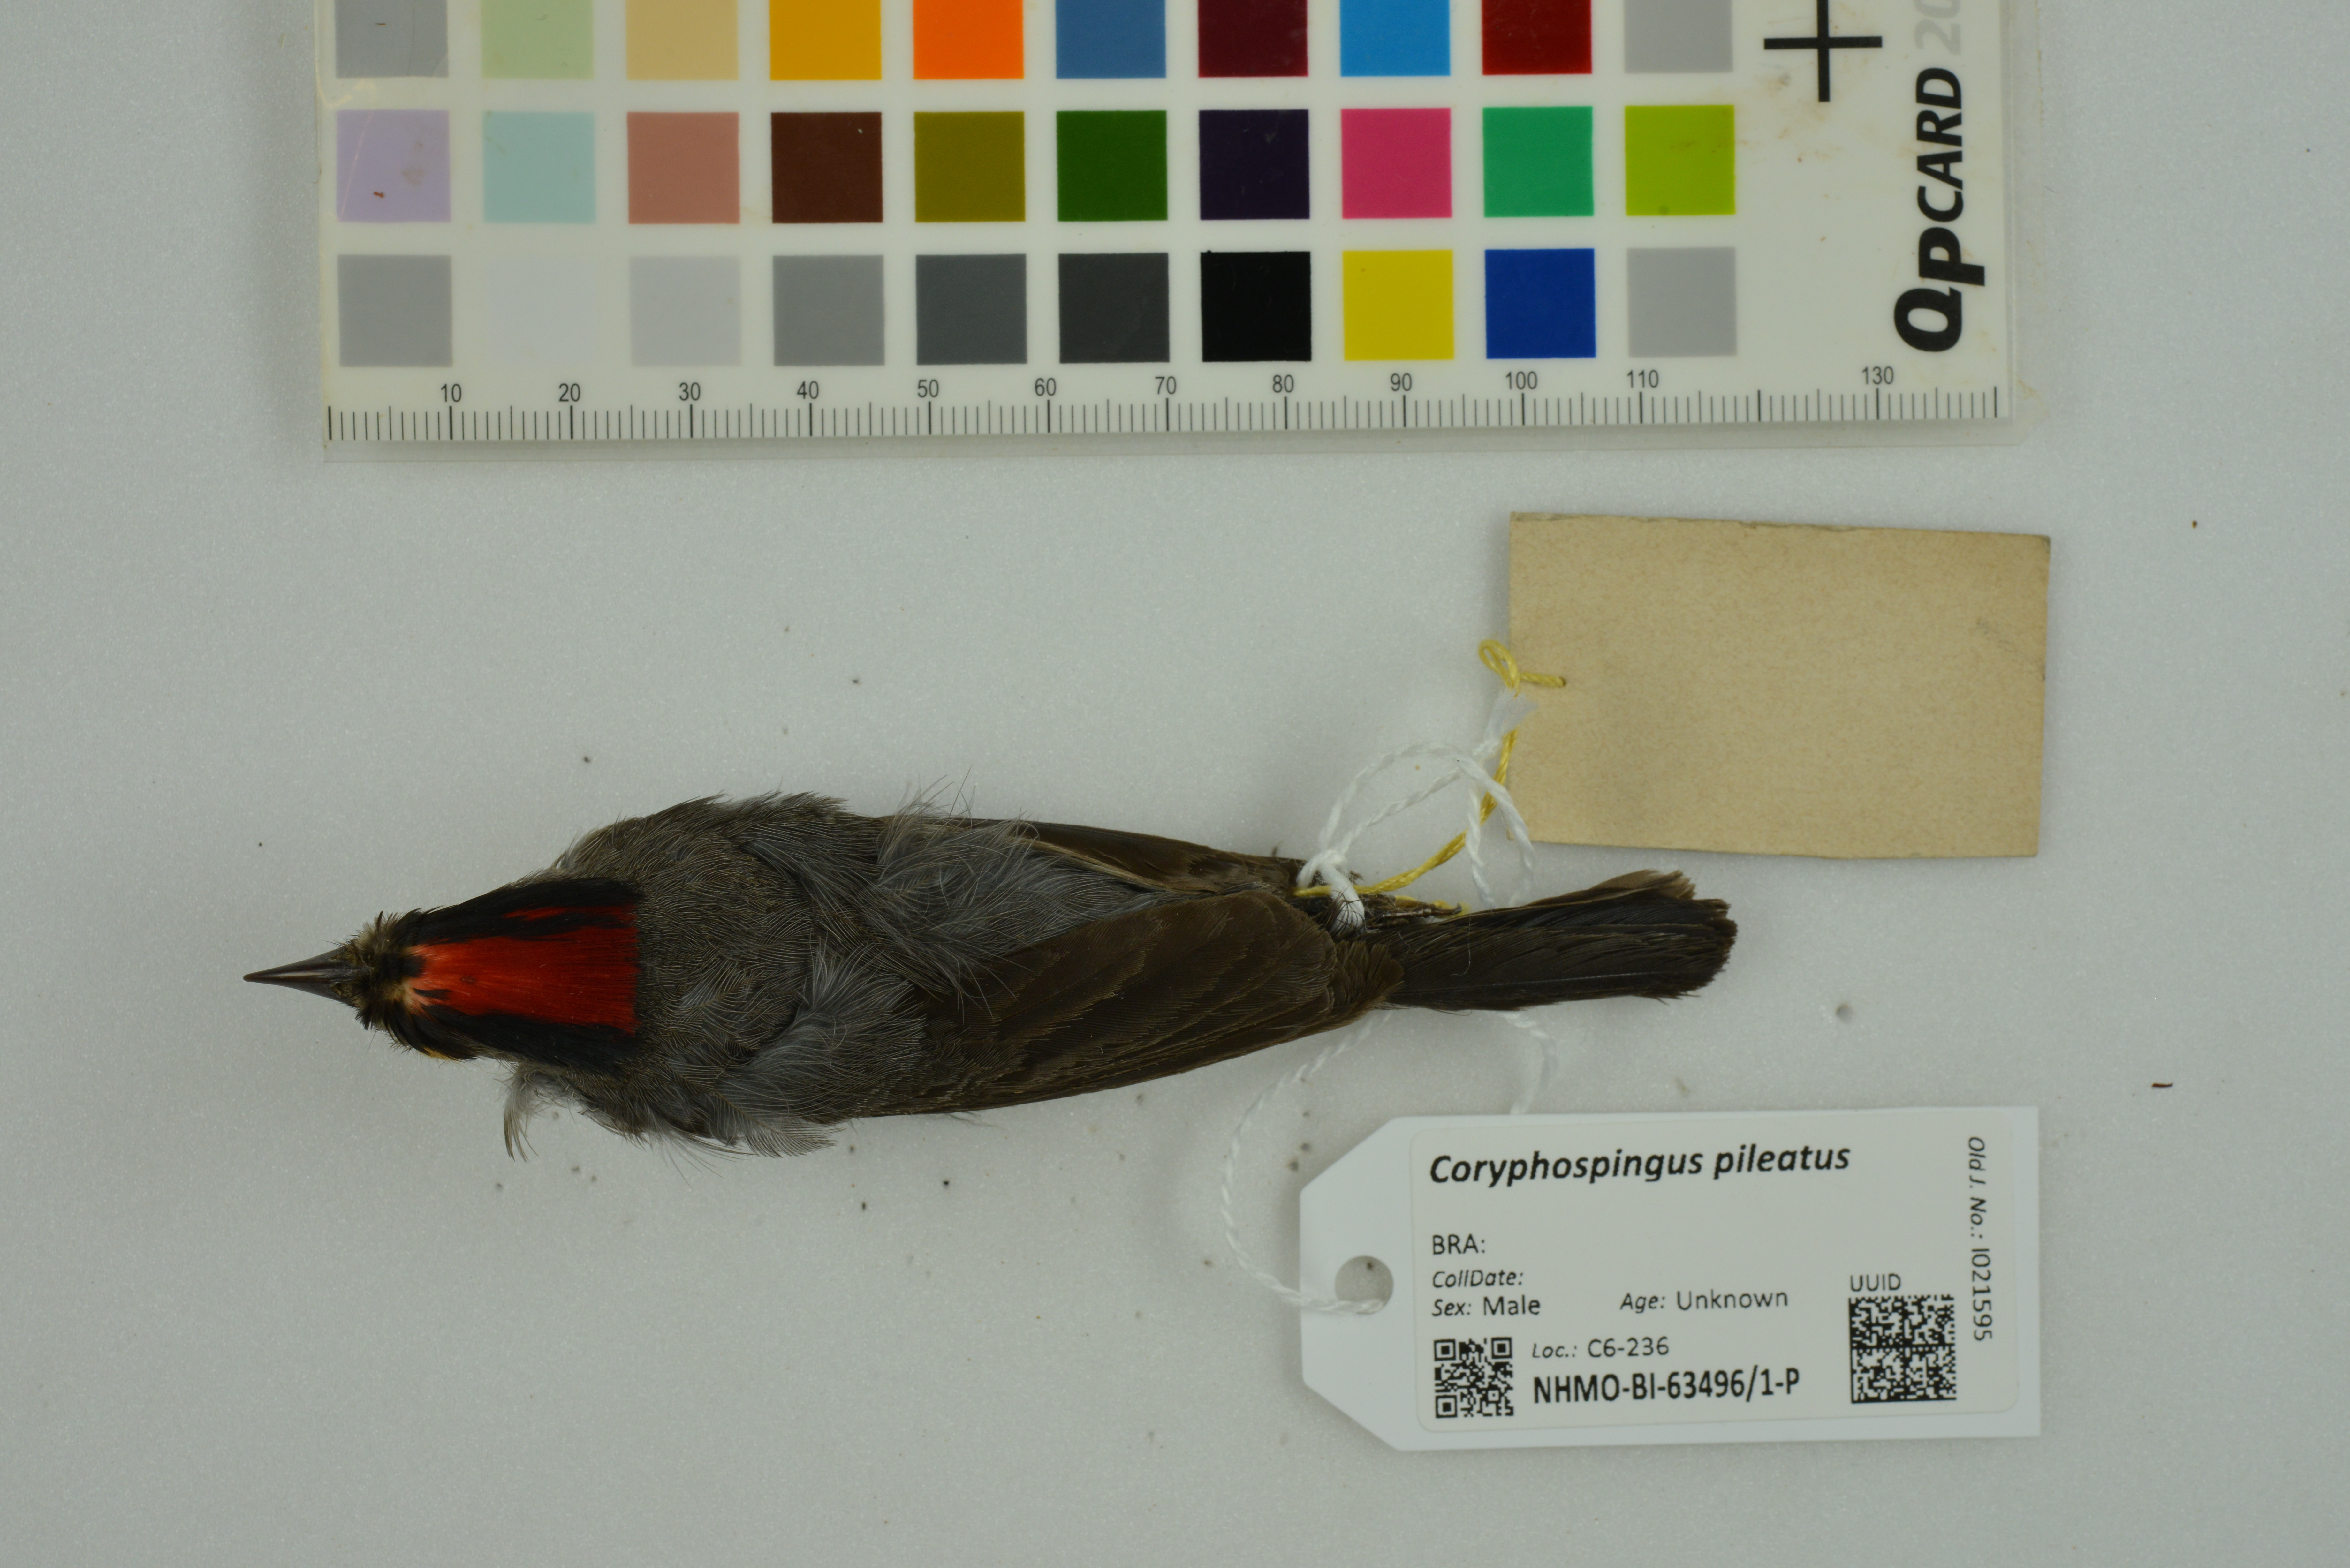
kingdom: Animalia
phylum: Chordata
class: Aves
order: Passeriformes
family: Thraupidae
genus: Coryphospingus
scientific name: Coryphospingus pileatus
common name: Grey pileated finch
